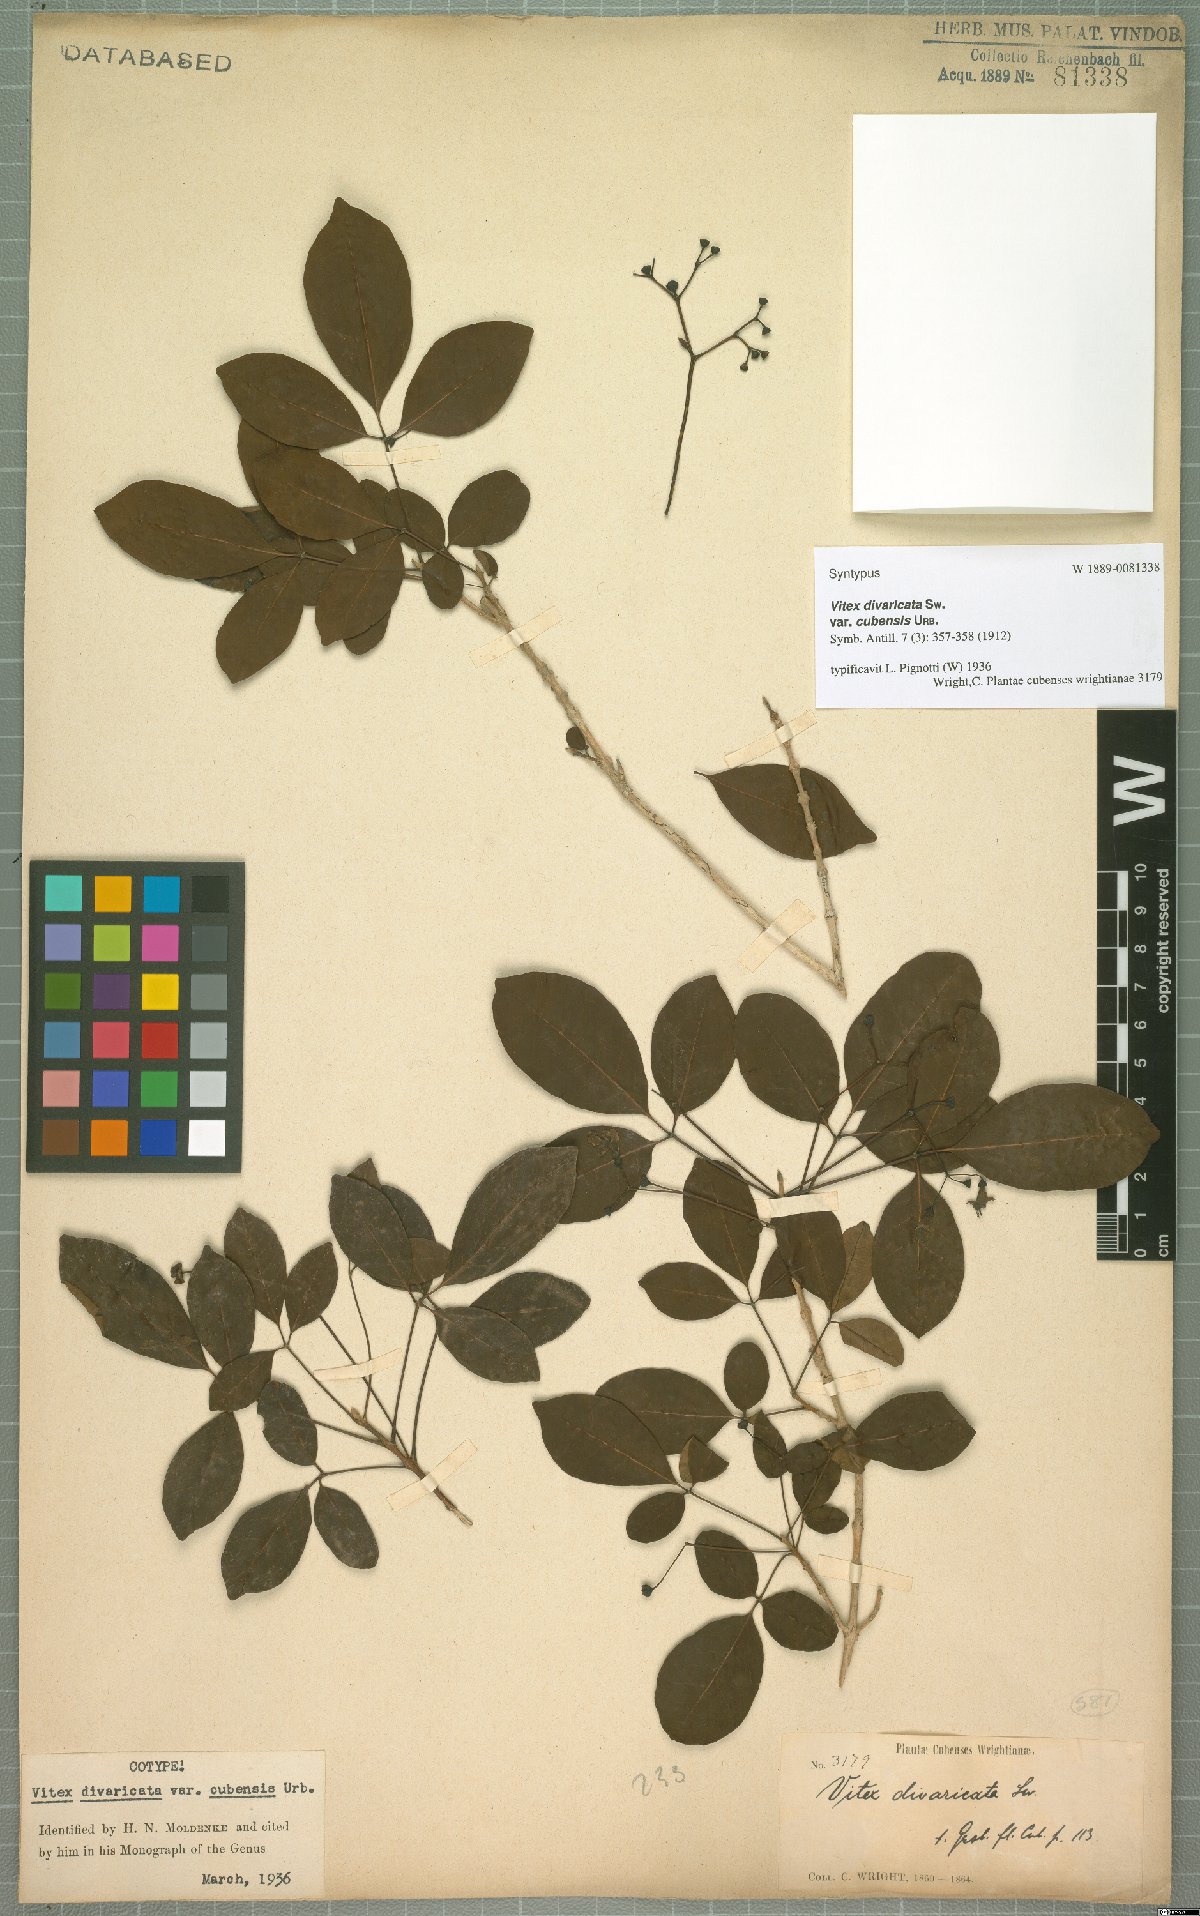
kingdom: Plantae
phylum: Tracheophyta
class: Magnoliopsida
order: Lamiales
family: Lamiaceae
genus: Vitex
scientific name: Vitex divaricata
